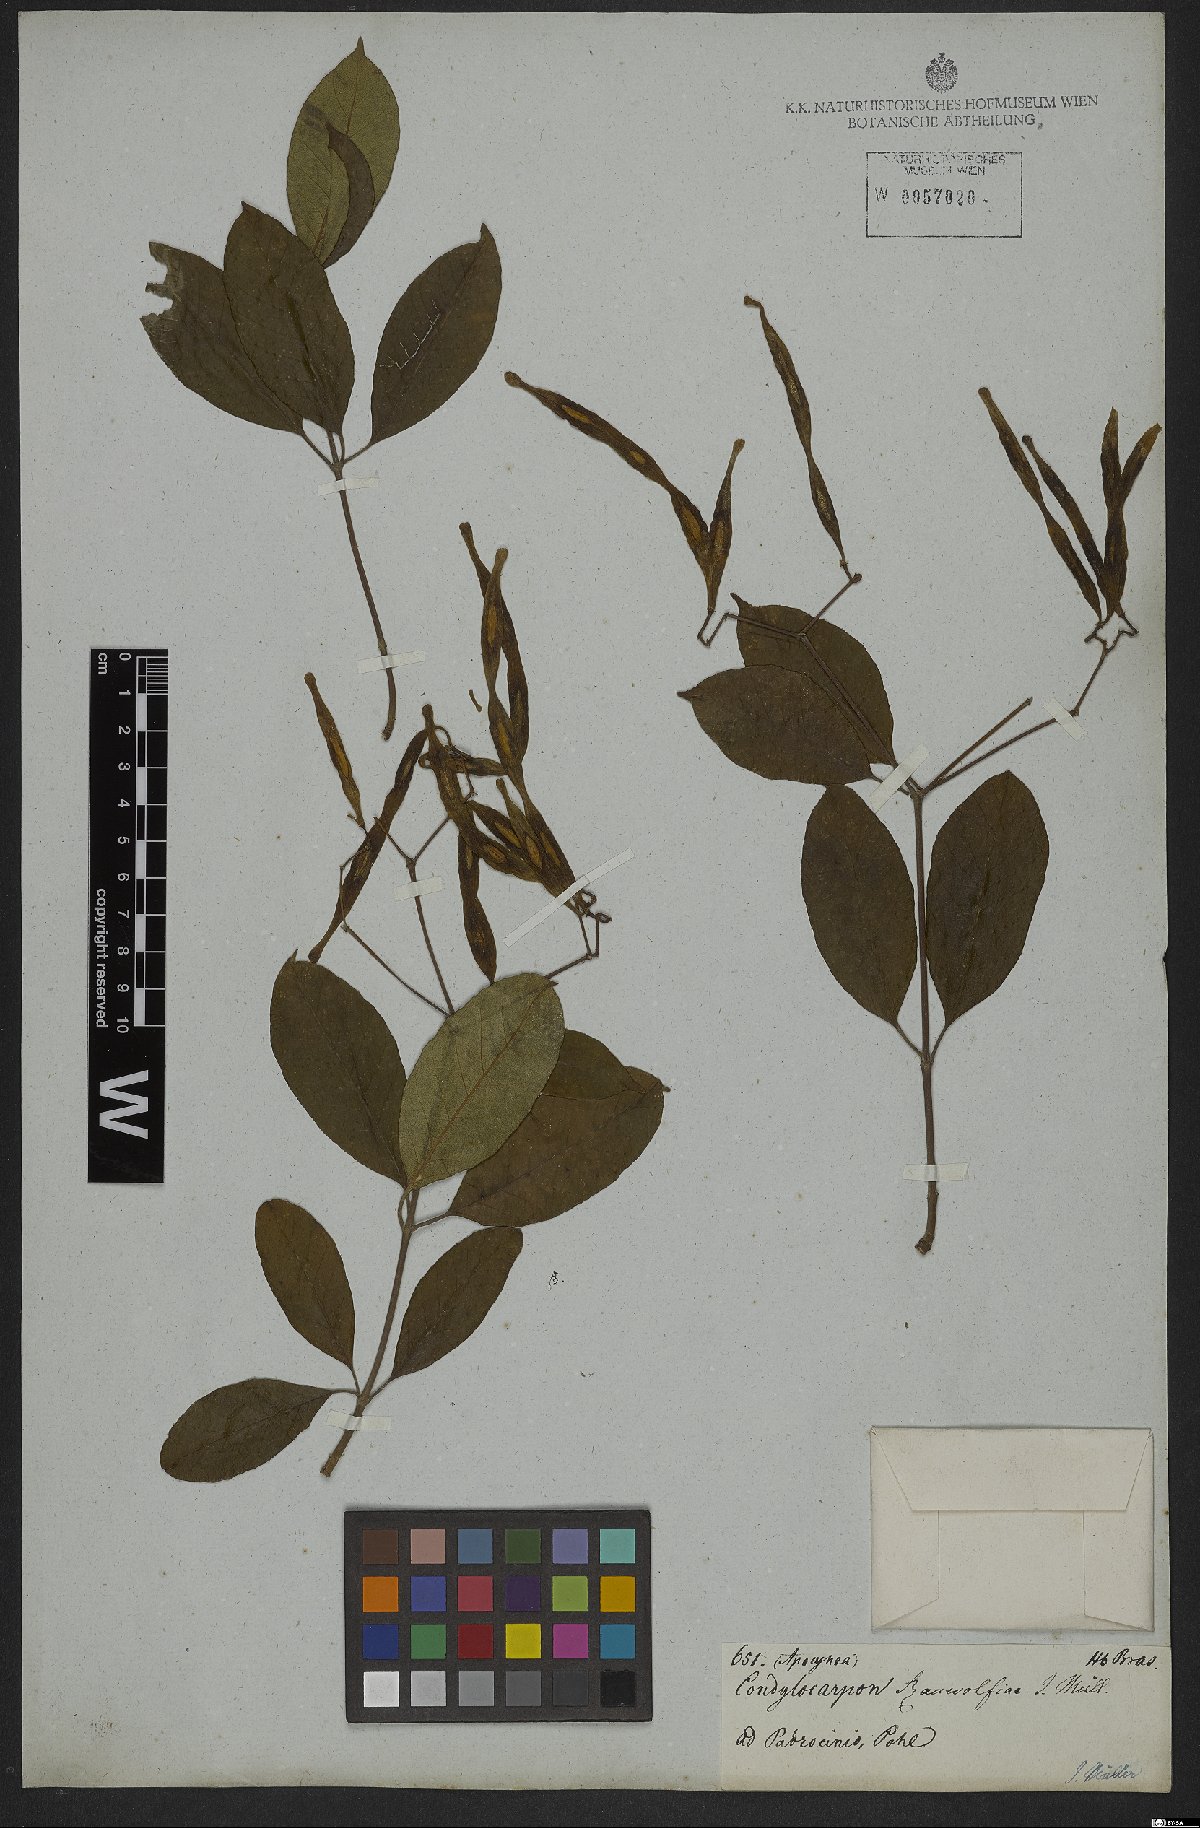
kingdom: Plantae
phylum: Tracheophyta
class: Magnoliopsida
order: Gentianales
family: Apocynaceae
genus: Condylocarpon
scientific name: Condylocarpon isthmicum
